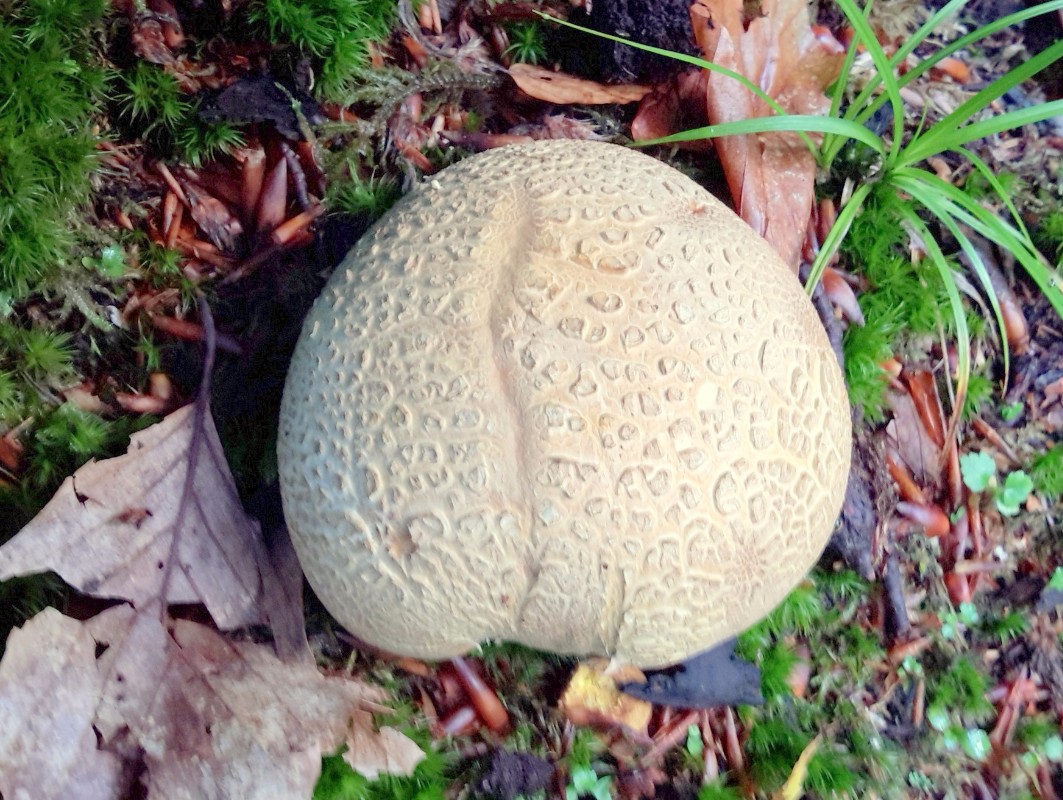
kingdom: Fungi
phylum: Basidiomycota
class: Agaricomycetes
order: Boletales
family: Sclerodermataceae
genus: Scleroderma
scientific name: Scleroderma citrinum
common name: almindelig bruskbold
